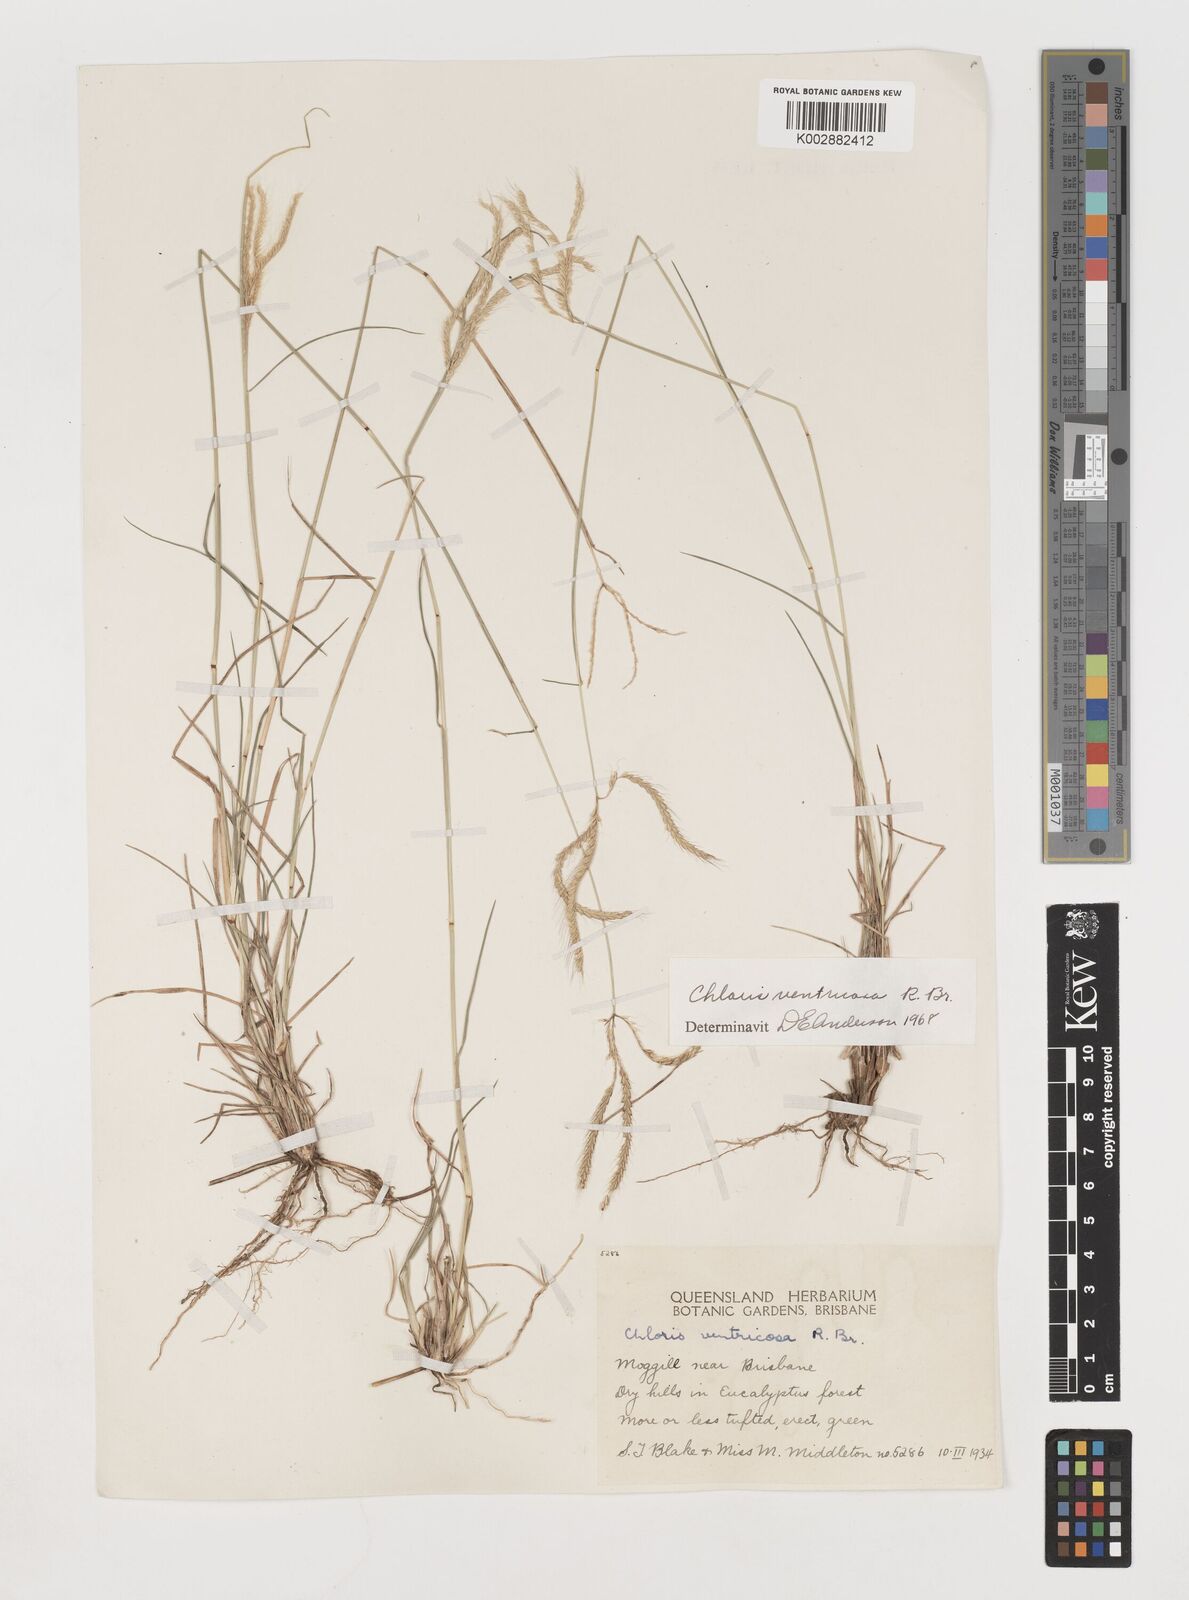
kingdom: Plantae
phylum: Tracheophyta
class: Liliopsida
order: Poales
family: Poaceae
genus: Chloris
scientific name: Chloris ventricosa
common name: Australian windmill grass
